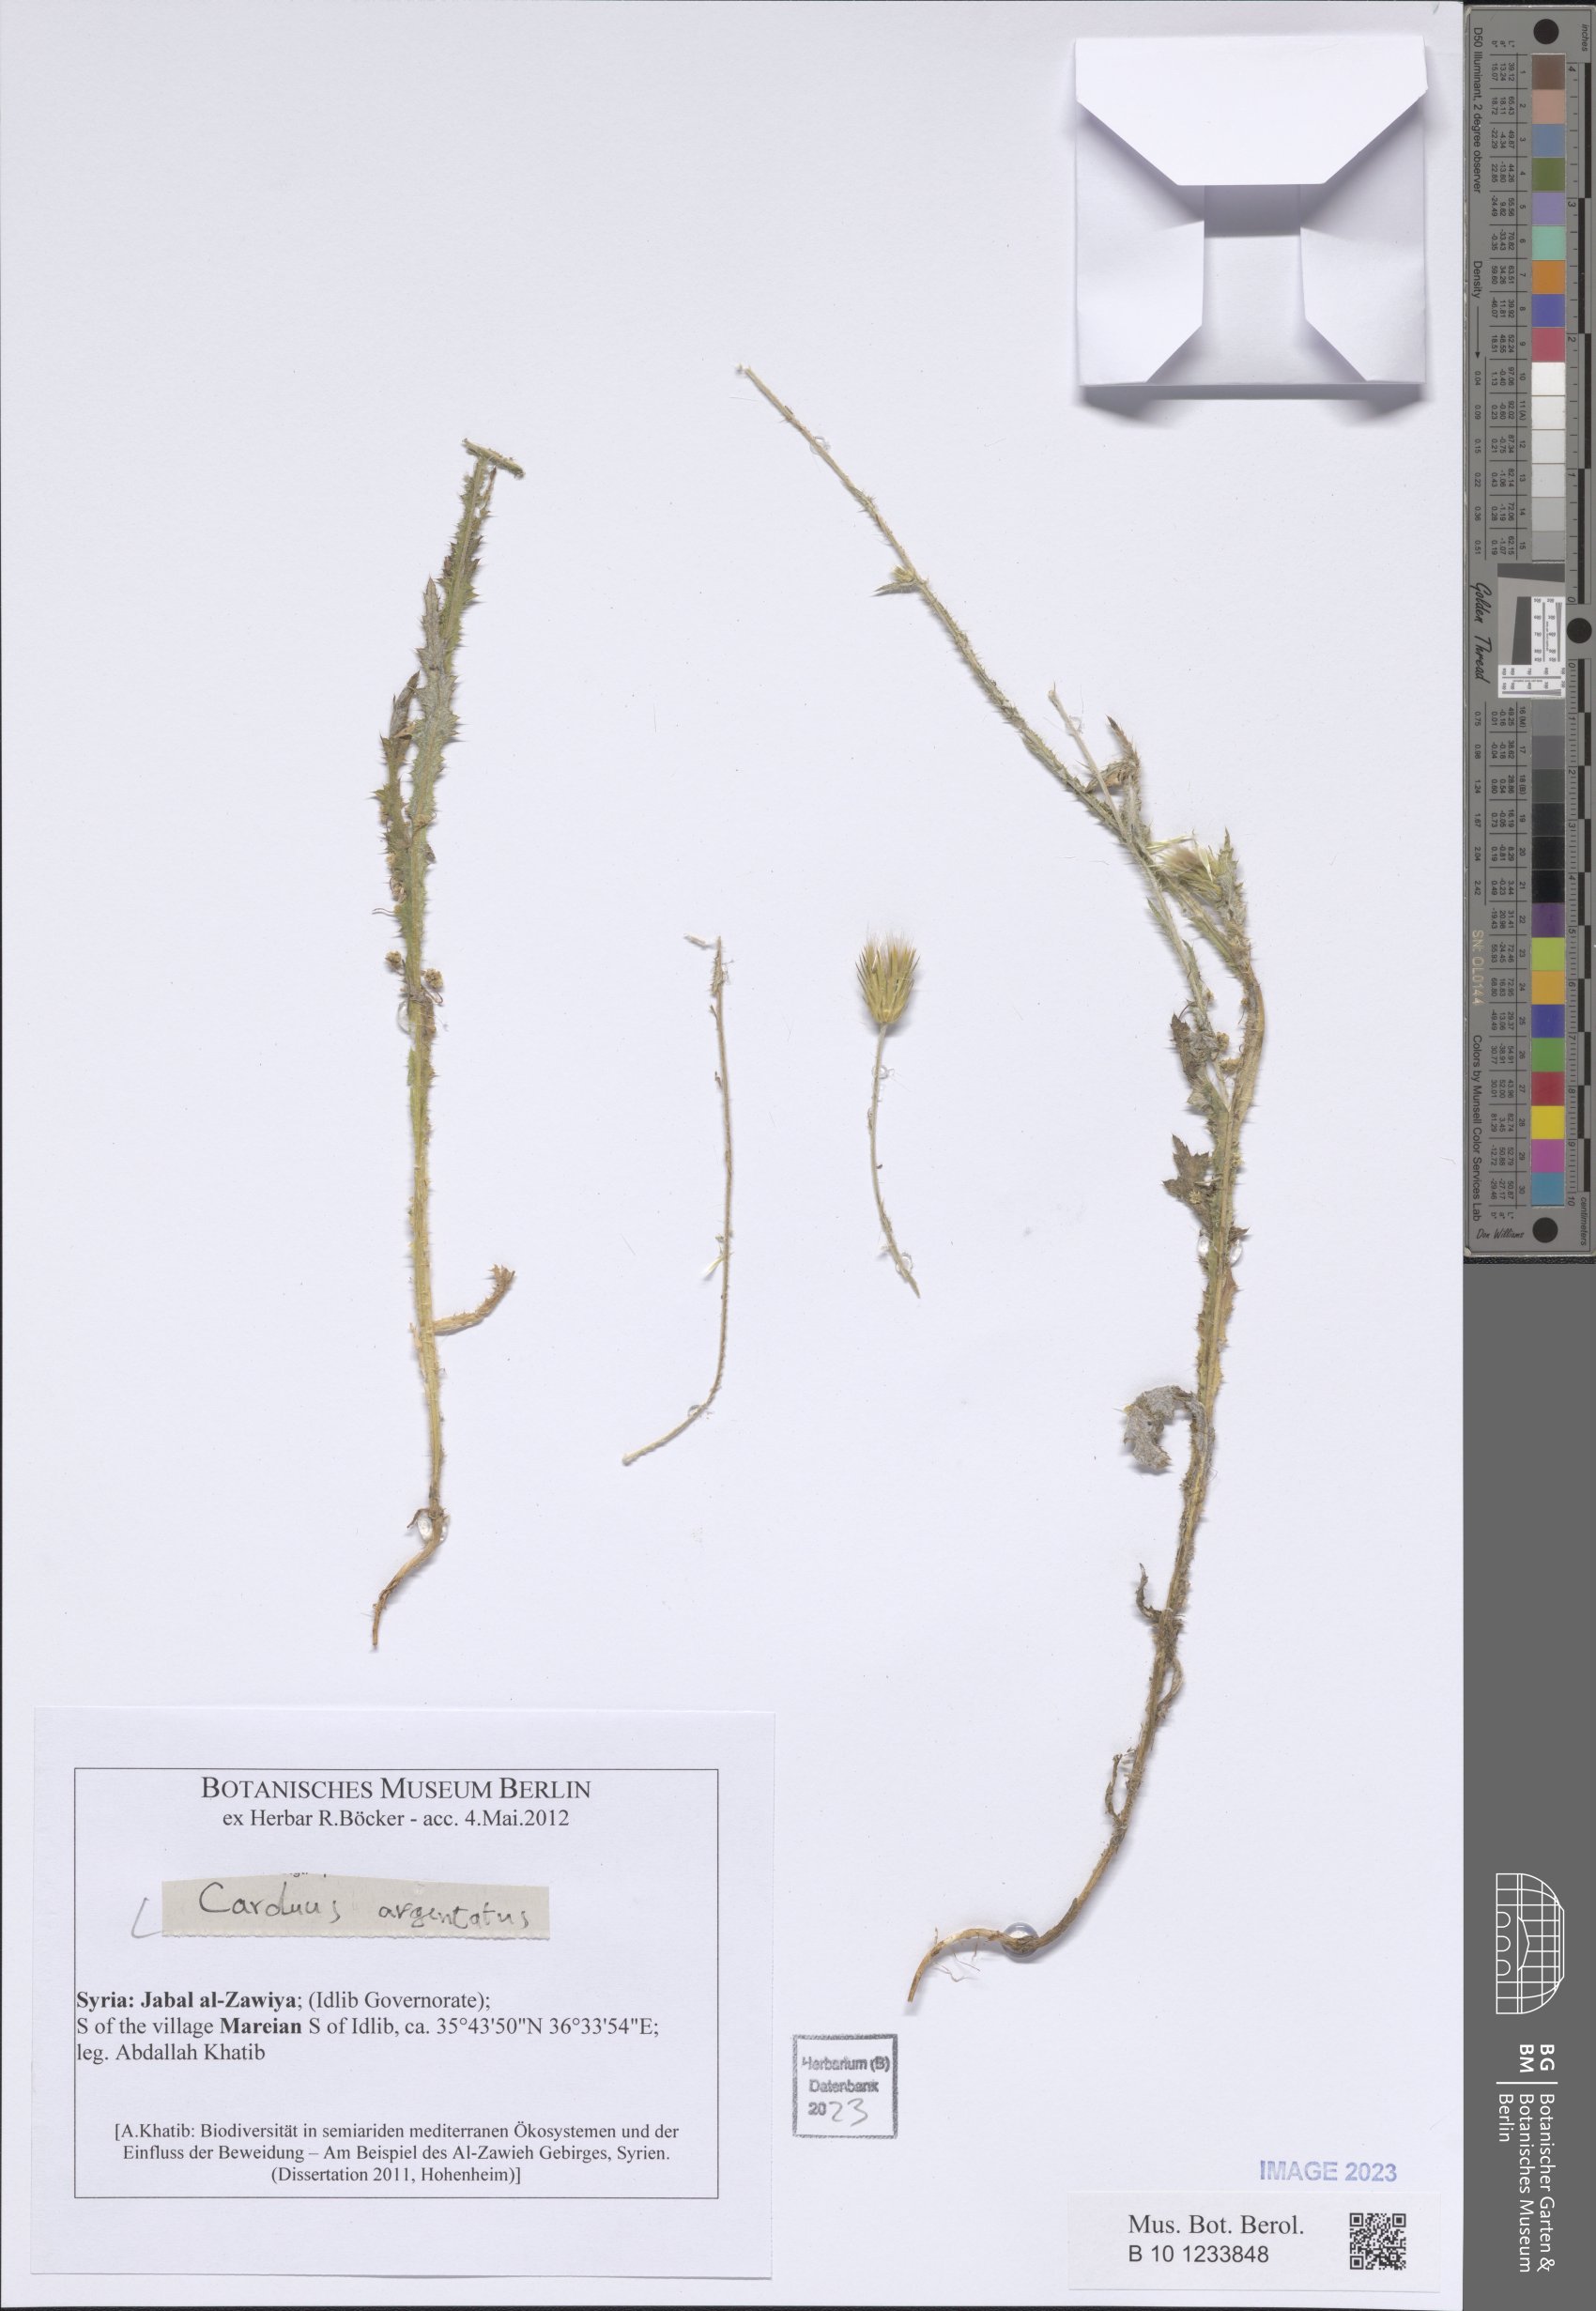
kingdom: Plantae
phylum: Tracheophyta
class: Magnoliopsida
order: Asterales
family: Asteraceae
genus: Carduus
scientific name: Carduus argentatus
